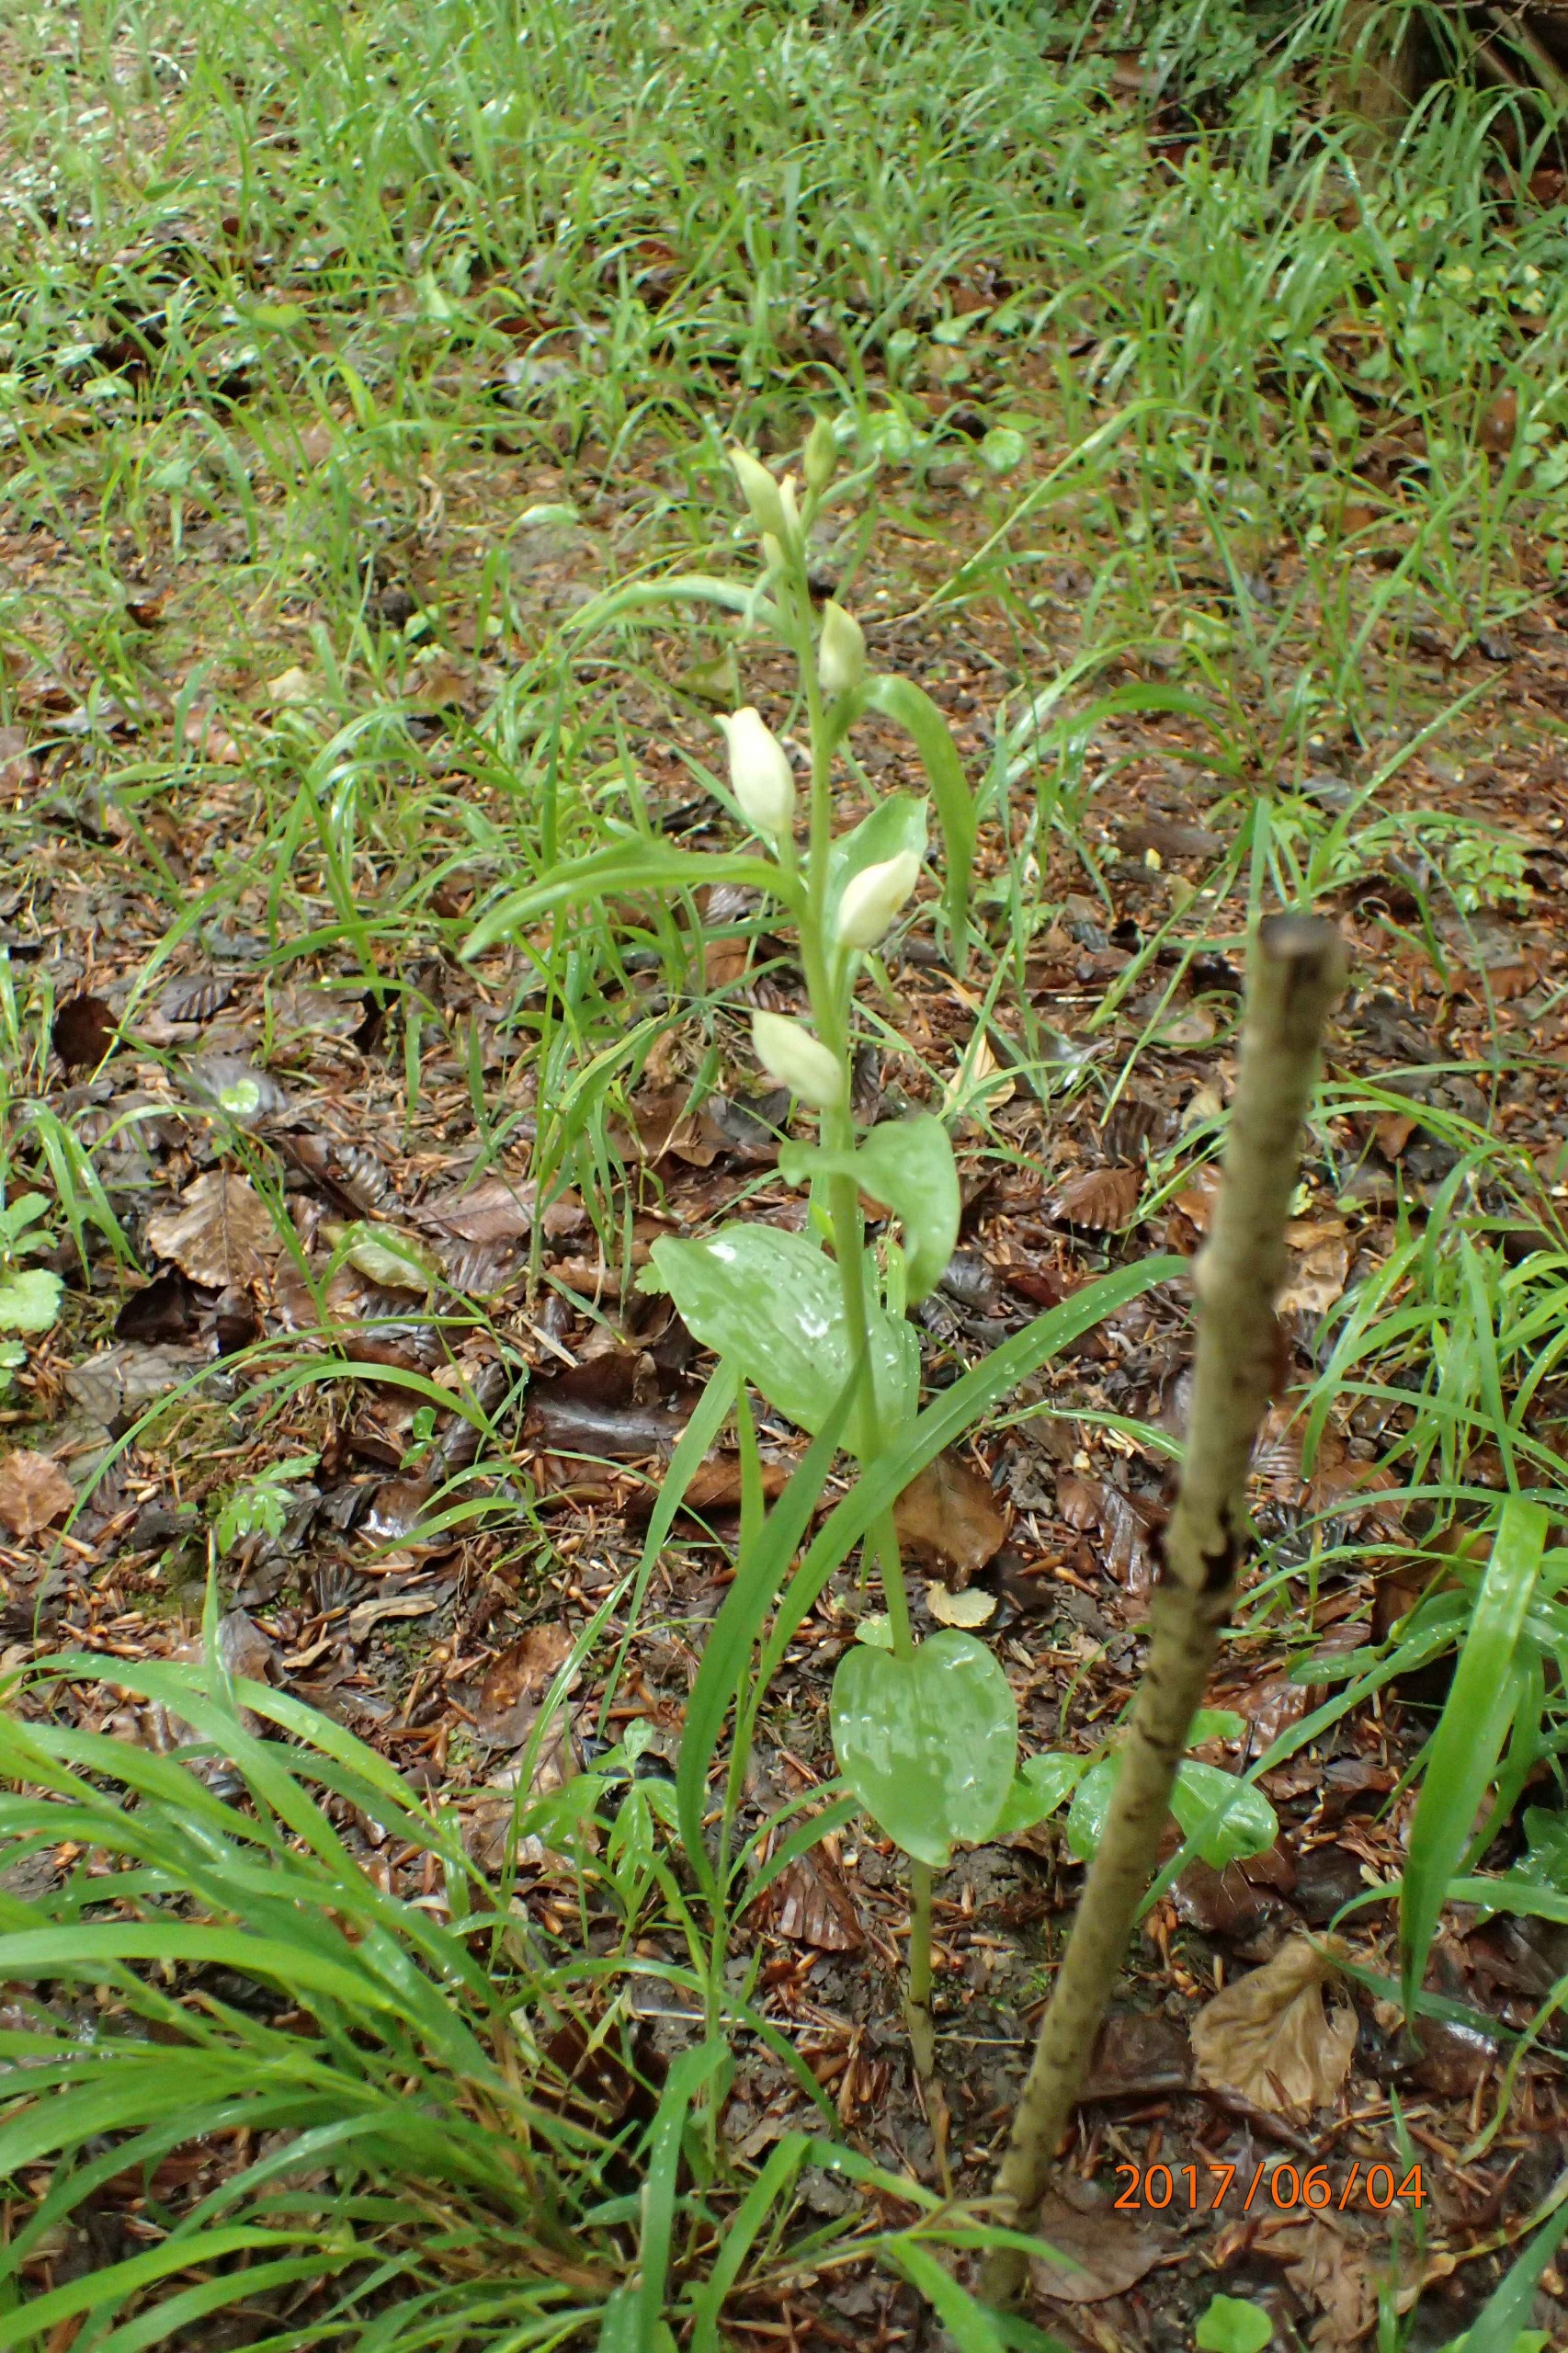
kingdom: Plantae
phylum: Tracheophyta
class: Liliopsida
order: Asparagales
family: Orchidaceae
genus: Cephalanthera
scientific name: Cephalanthera damasonium
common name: Hvidgul skovlilje
